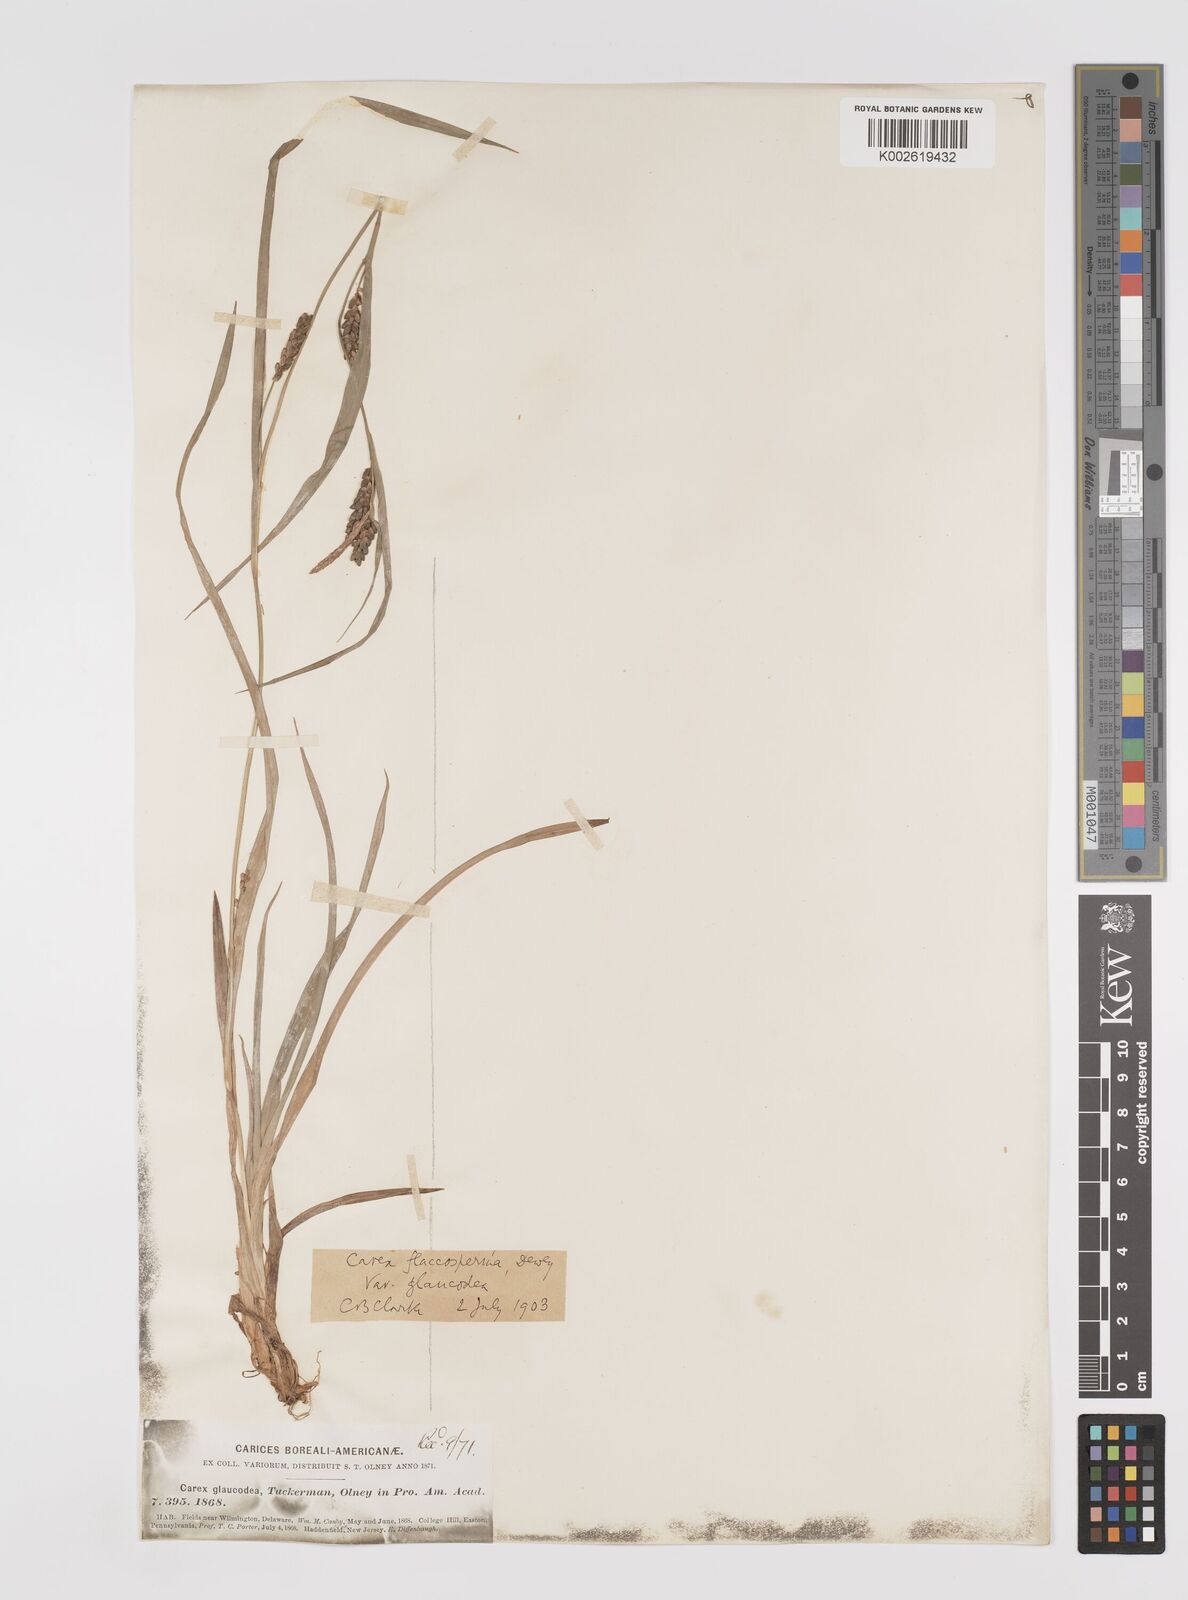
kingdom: Plantae
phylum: Tracheophyta
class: Liliopsida
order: Poales
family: Cyperaceae
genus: Carex
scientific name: Carex glaucodea
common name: Blue sedge
